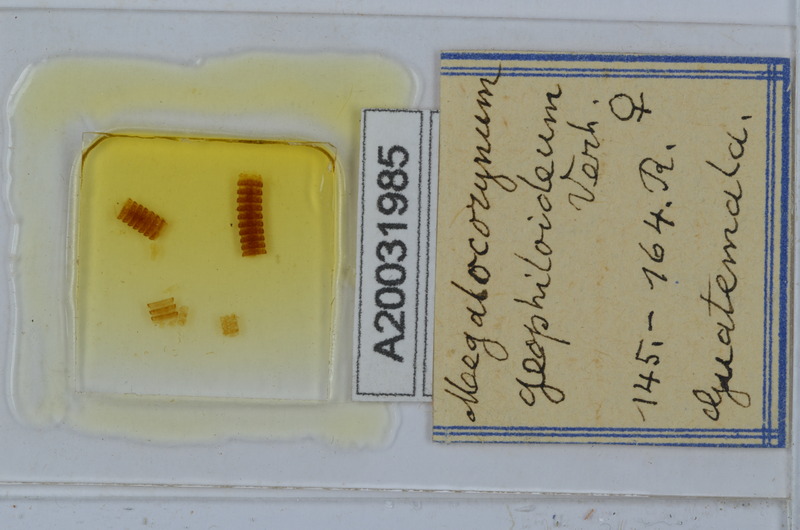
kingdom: Animalia
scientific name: Animalia
